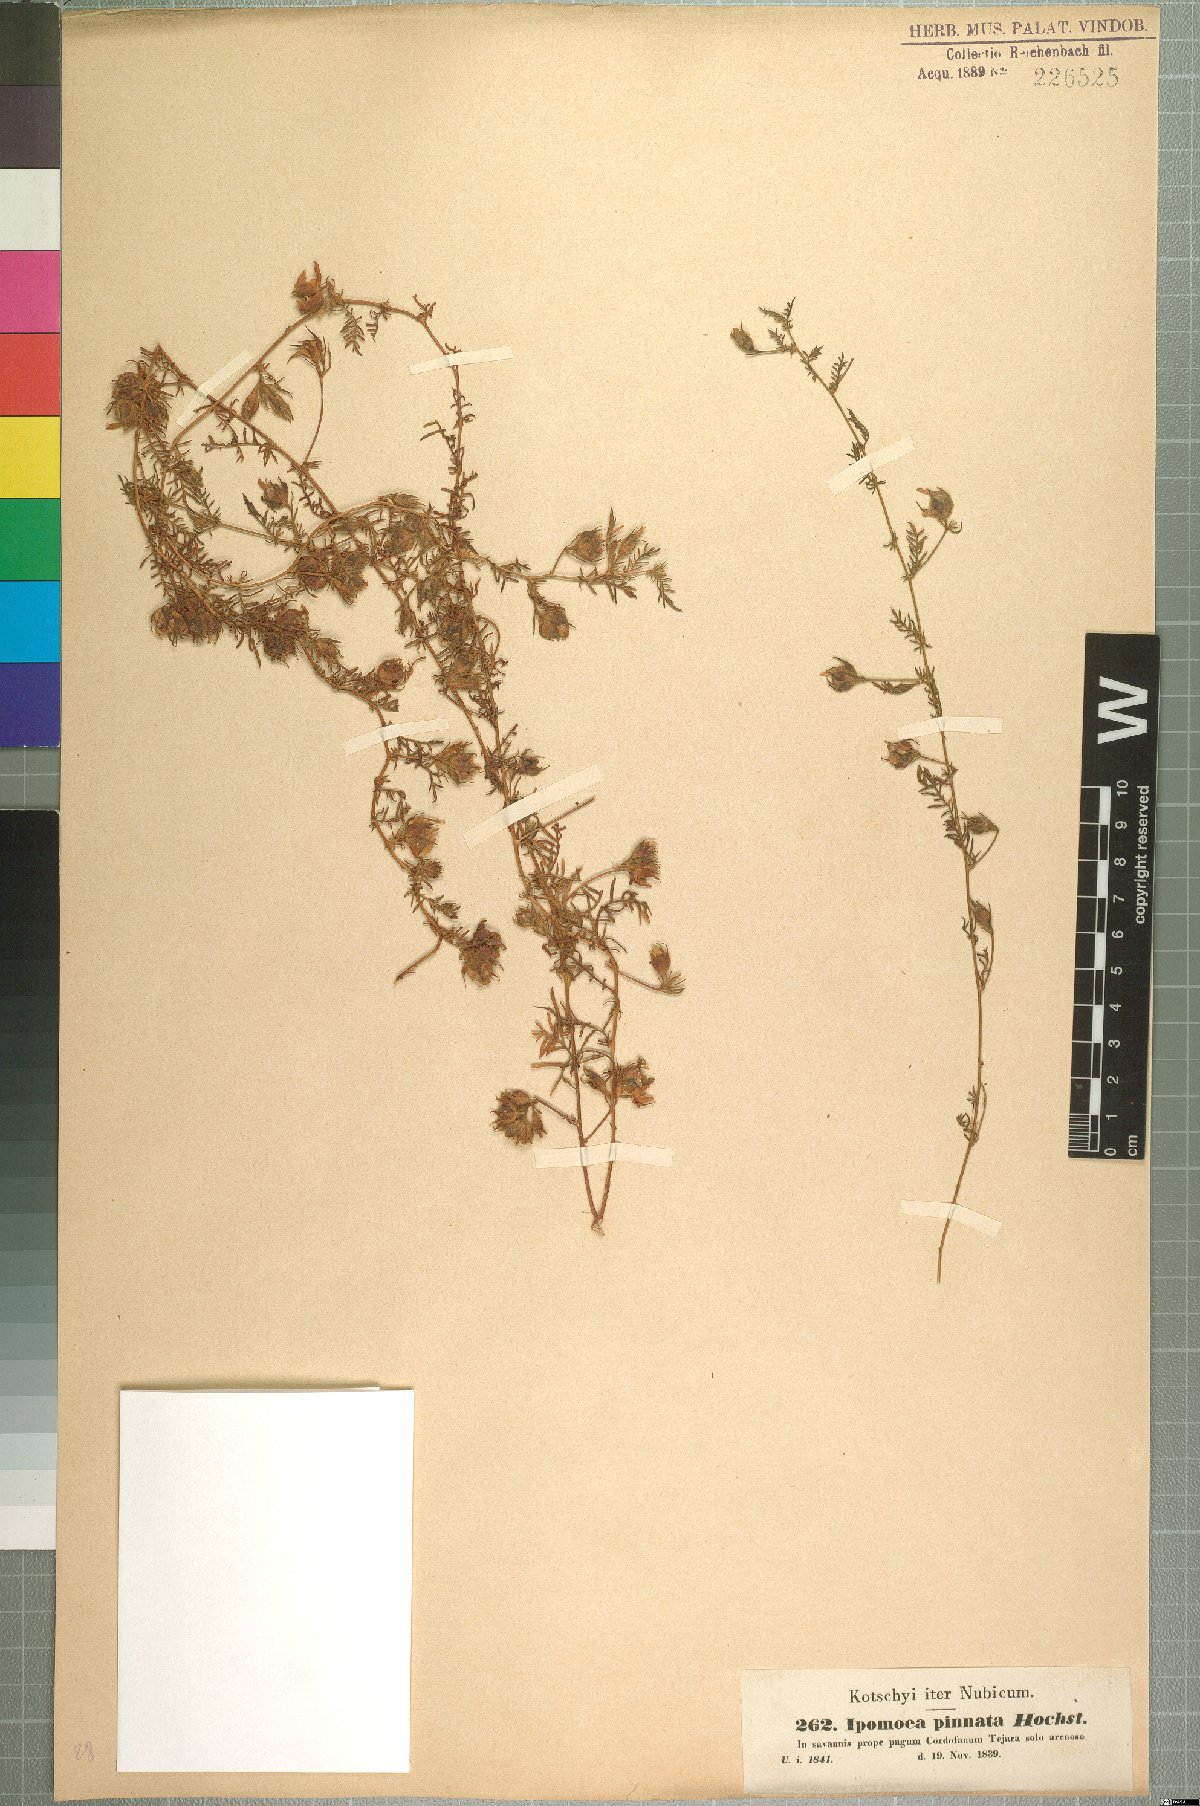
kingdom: Plantae
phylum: Tracheophyta
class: Magnoliopsida
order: Solanales
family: Convolvulaceae
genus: Xenostegia
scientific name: Xenostegia pinnata
